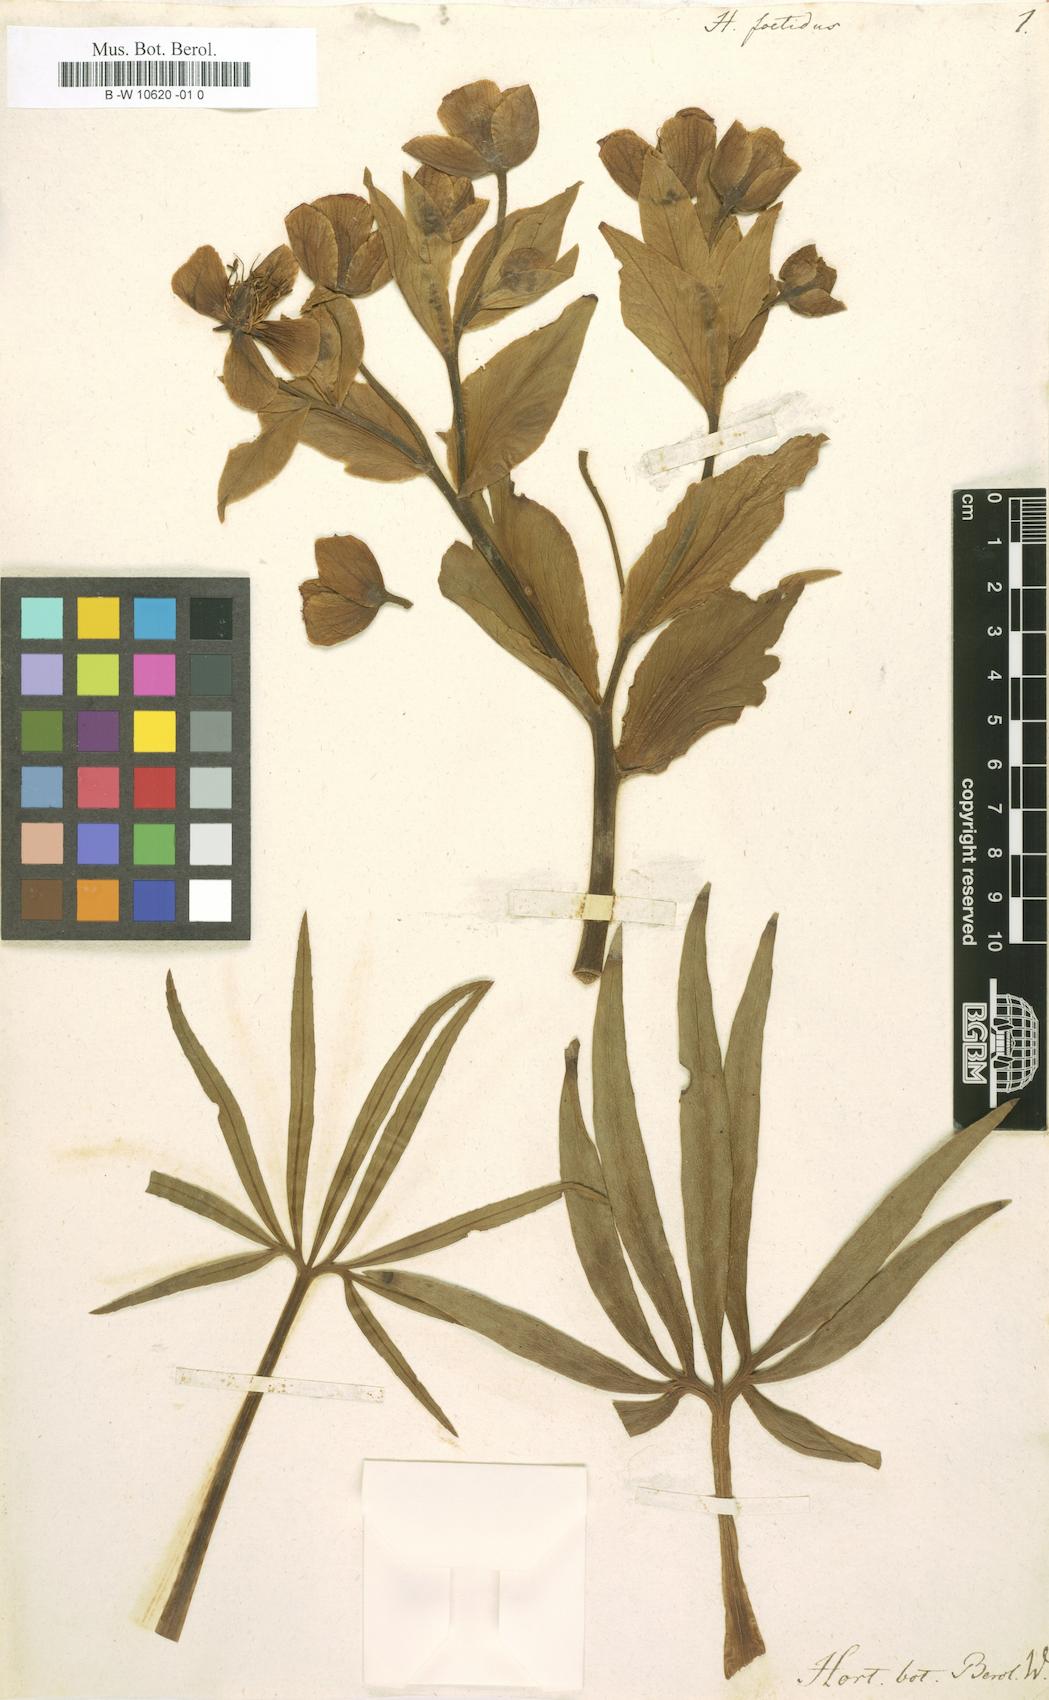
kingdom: Plantae
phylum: Tracheophyta
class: Magnoliopsida
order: Ranunculales
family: Ranunculaceae
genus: Helleborus
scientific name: Helleborus foetidus
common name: Stinking hellebore
